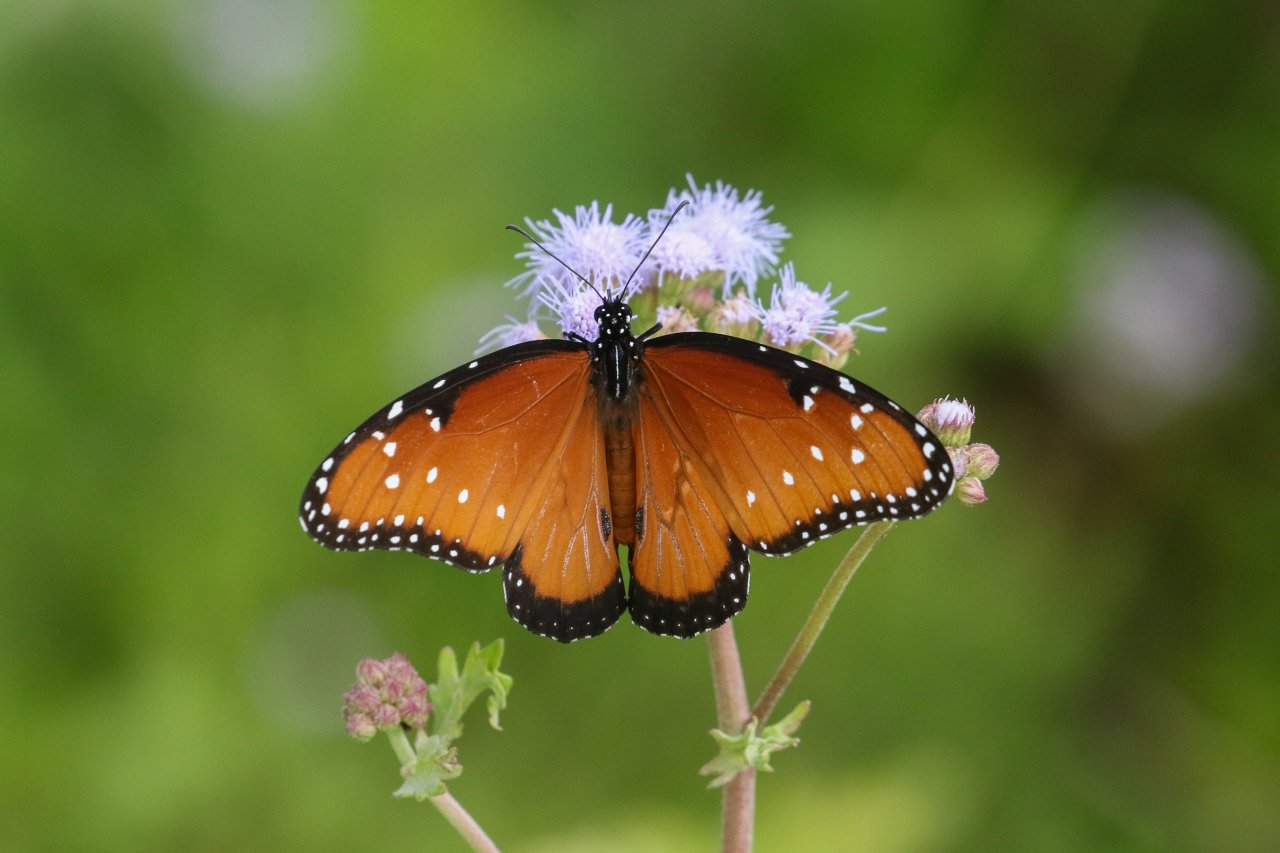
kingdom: Animalia
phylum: Arthropoda
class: Insecta
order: Lepidoptera
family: Nymphalidae
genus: Danaus
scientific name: Danaus gilippus
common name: Queen
